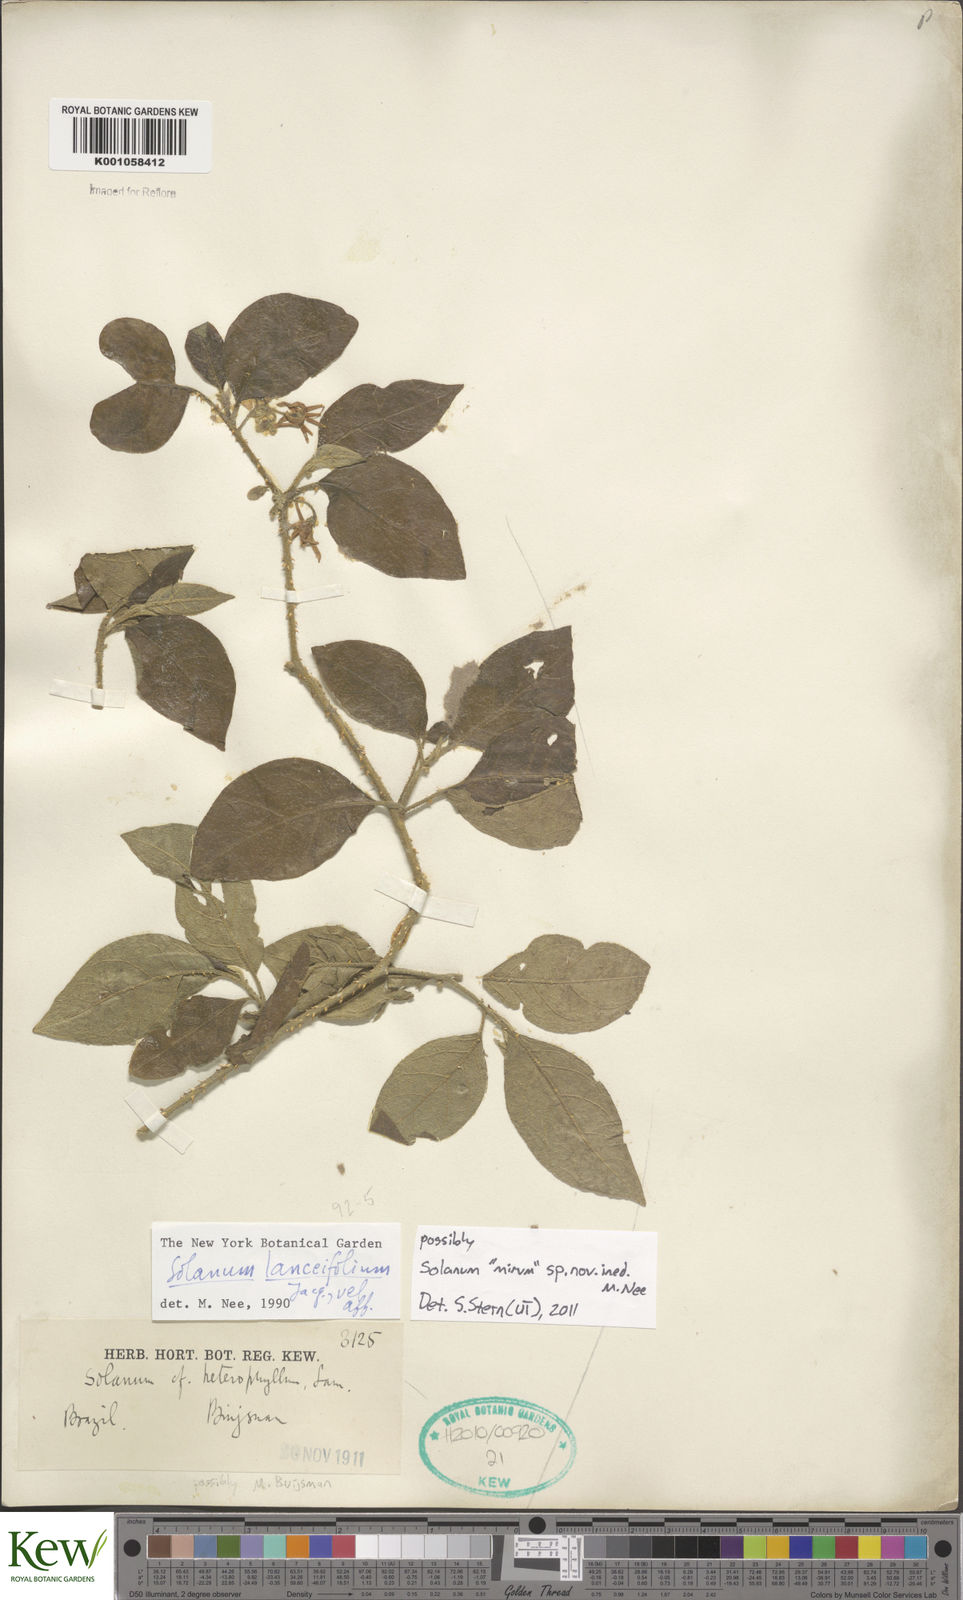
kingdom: Plantae
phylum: Tracheophyta
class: Magnoliopsida
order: Solanales
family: Solanaceae
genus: Solanum
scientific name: Solanum
